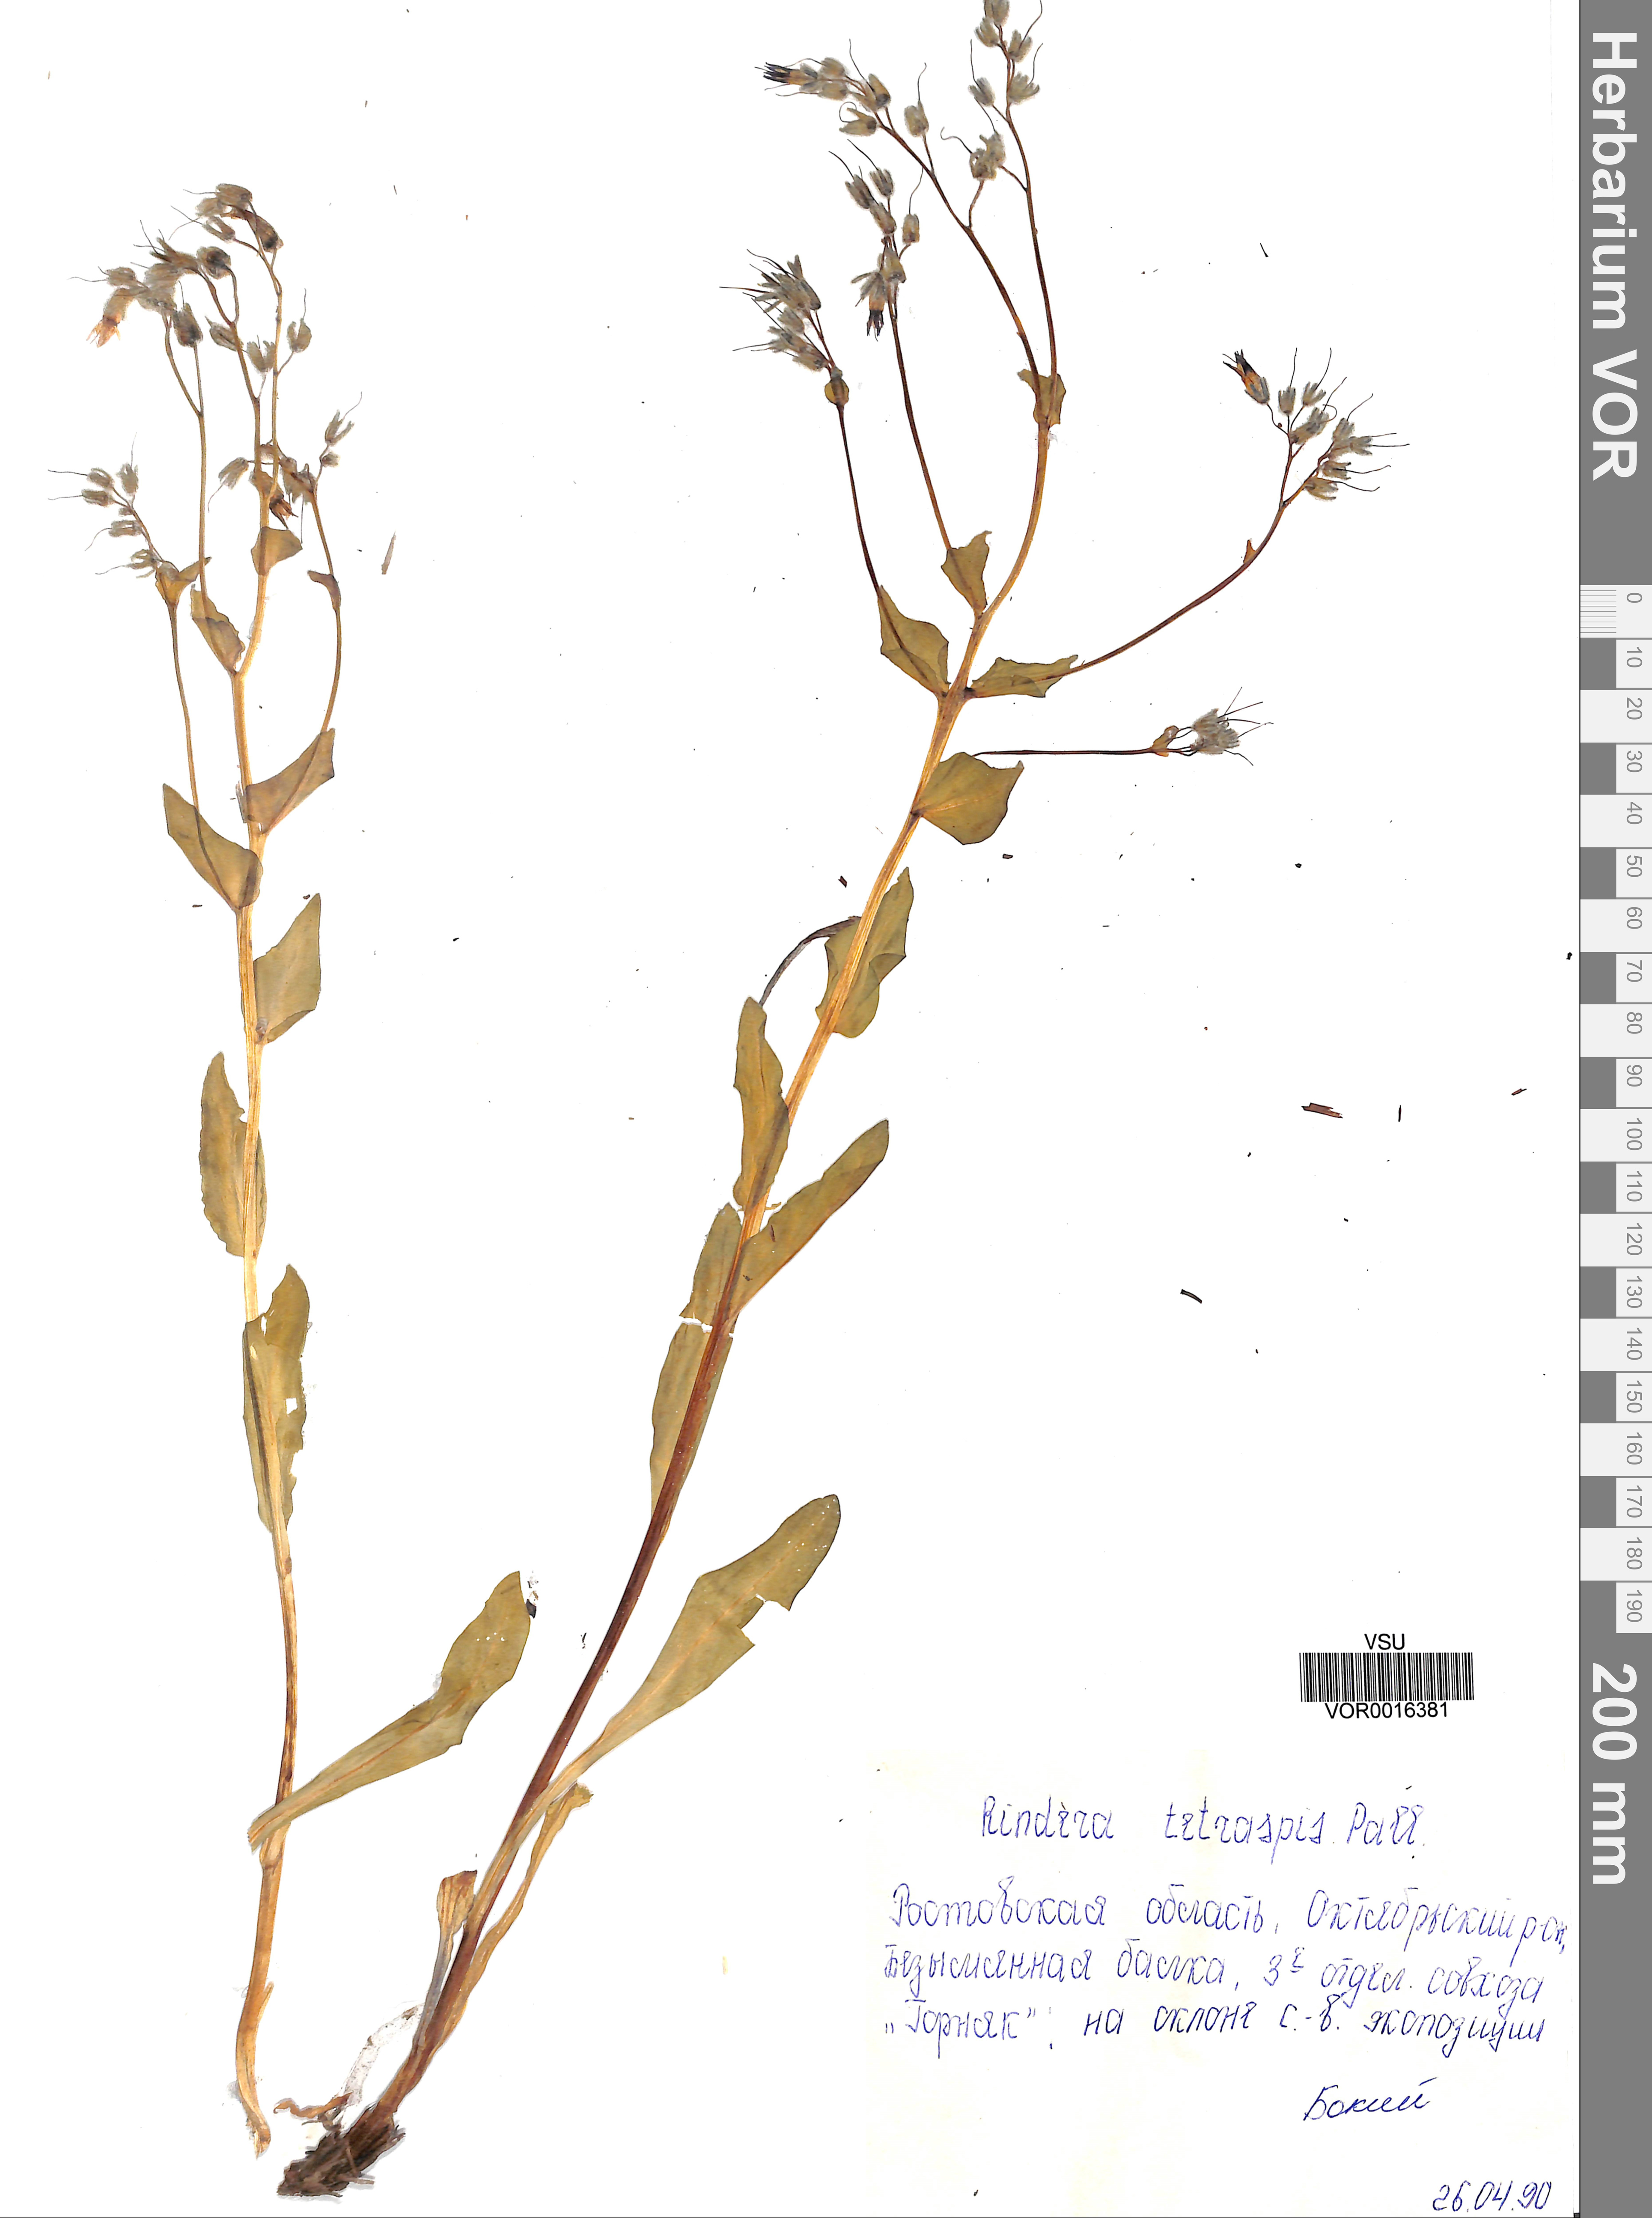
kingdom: Plantae
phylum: Tracheophyta
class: Magnoliopsida
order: Boraginales
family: Boraginaceae
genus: Rindera
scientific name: Rindera tetraspis
